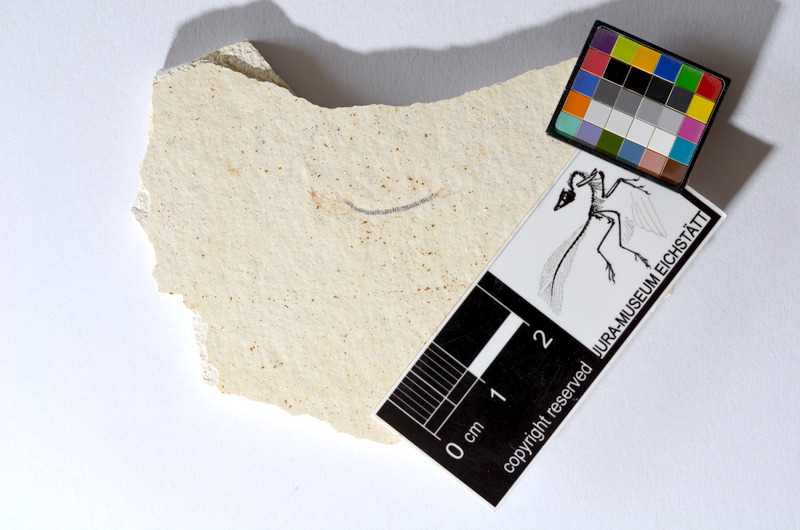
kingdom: Animalia
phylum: Chordata
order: Salmoniformes
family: Orthogonikleithridae
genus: Orthogonikleithrus
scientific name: Orthogonikleithrus hoelli
